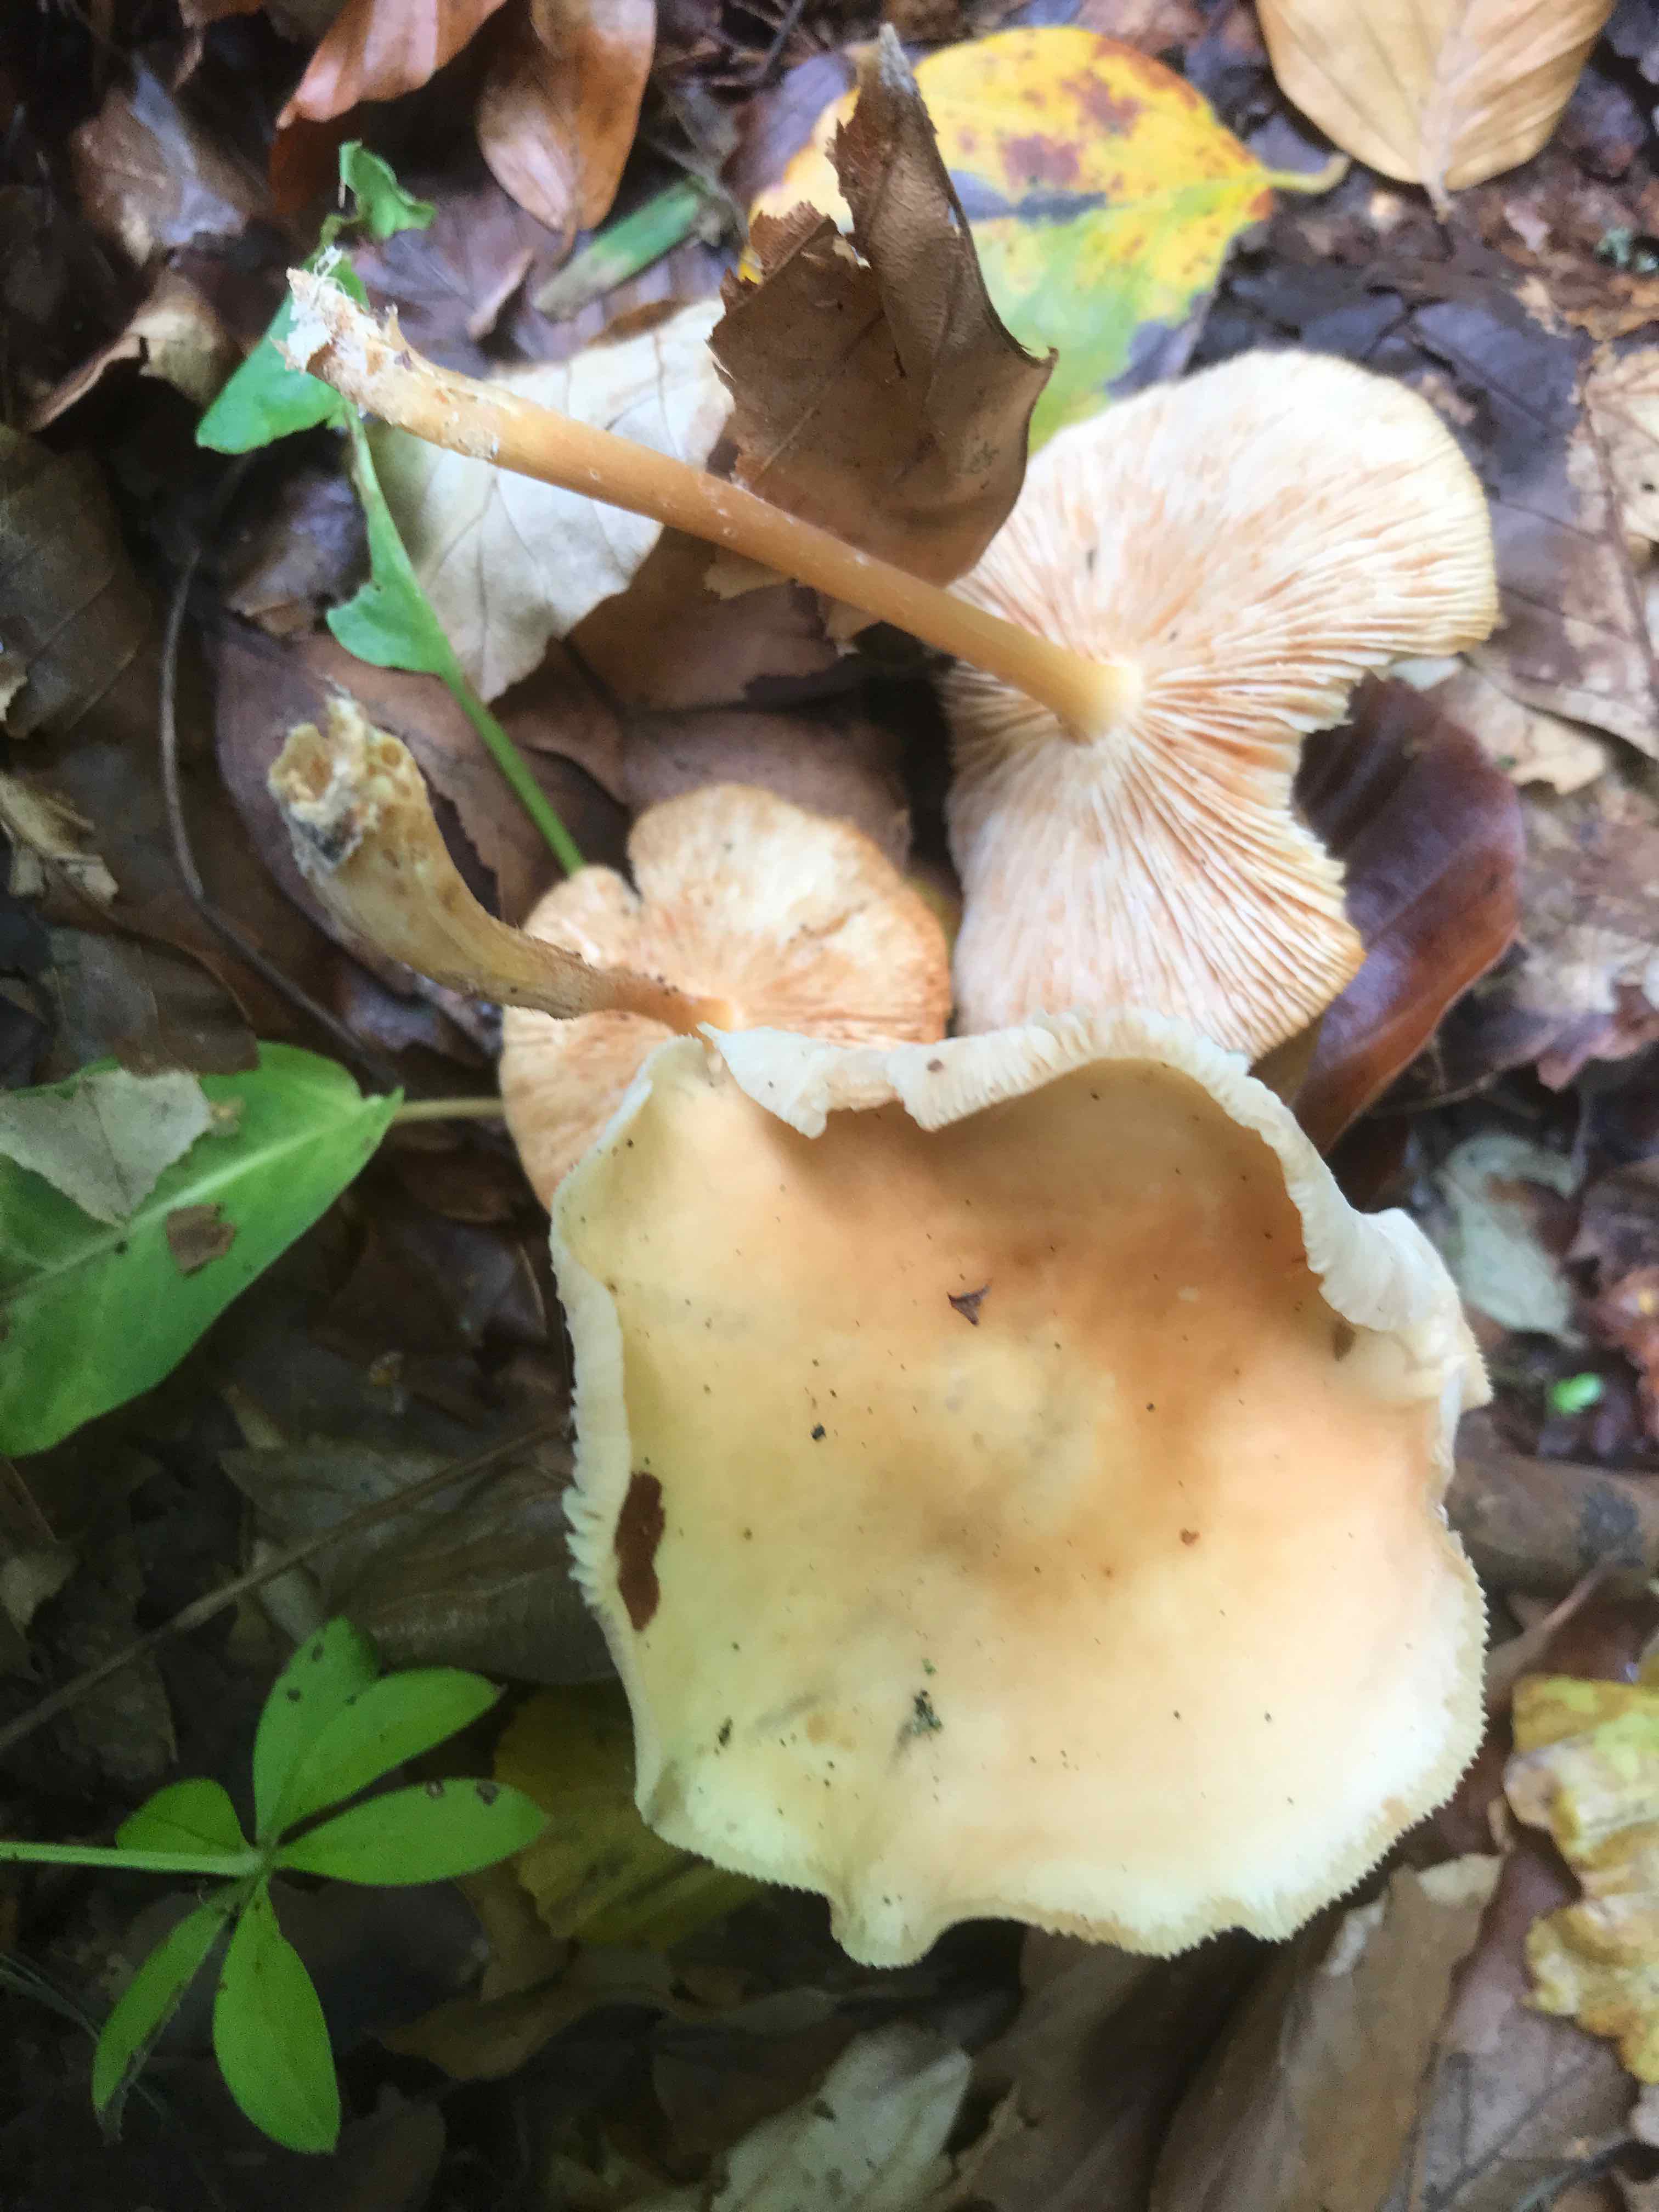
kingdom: Fungi
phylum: Basidiomycota
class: Agaricomycetes
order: Agaricales
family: Omphalotaceae
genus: Gymnopus
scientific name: Gymnopus dryophilus
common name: løv-fladhat
